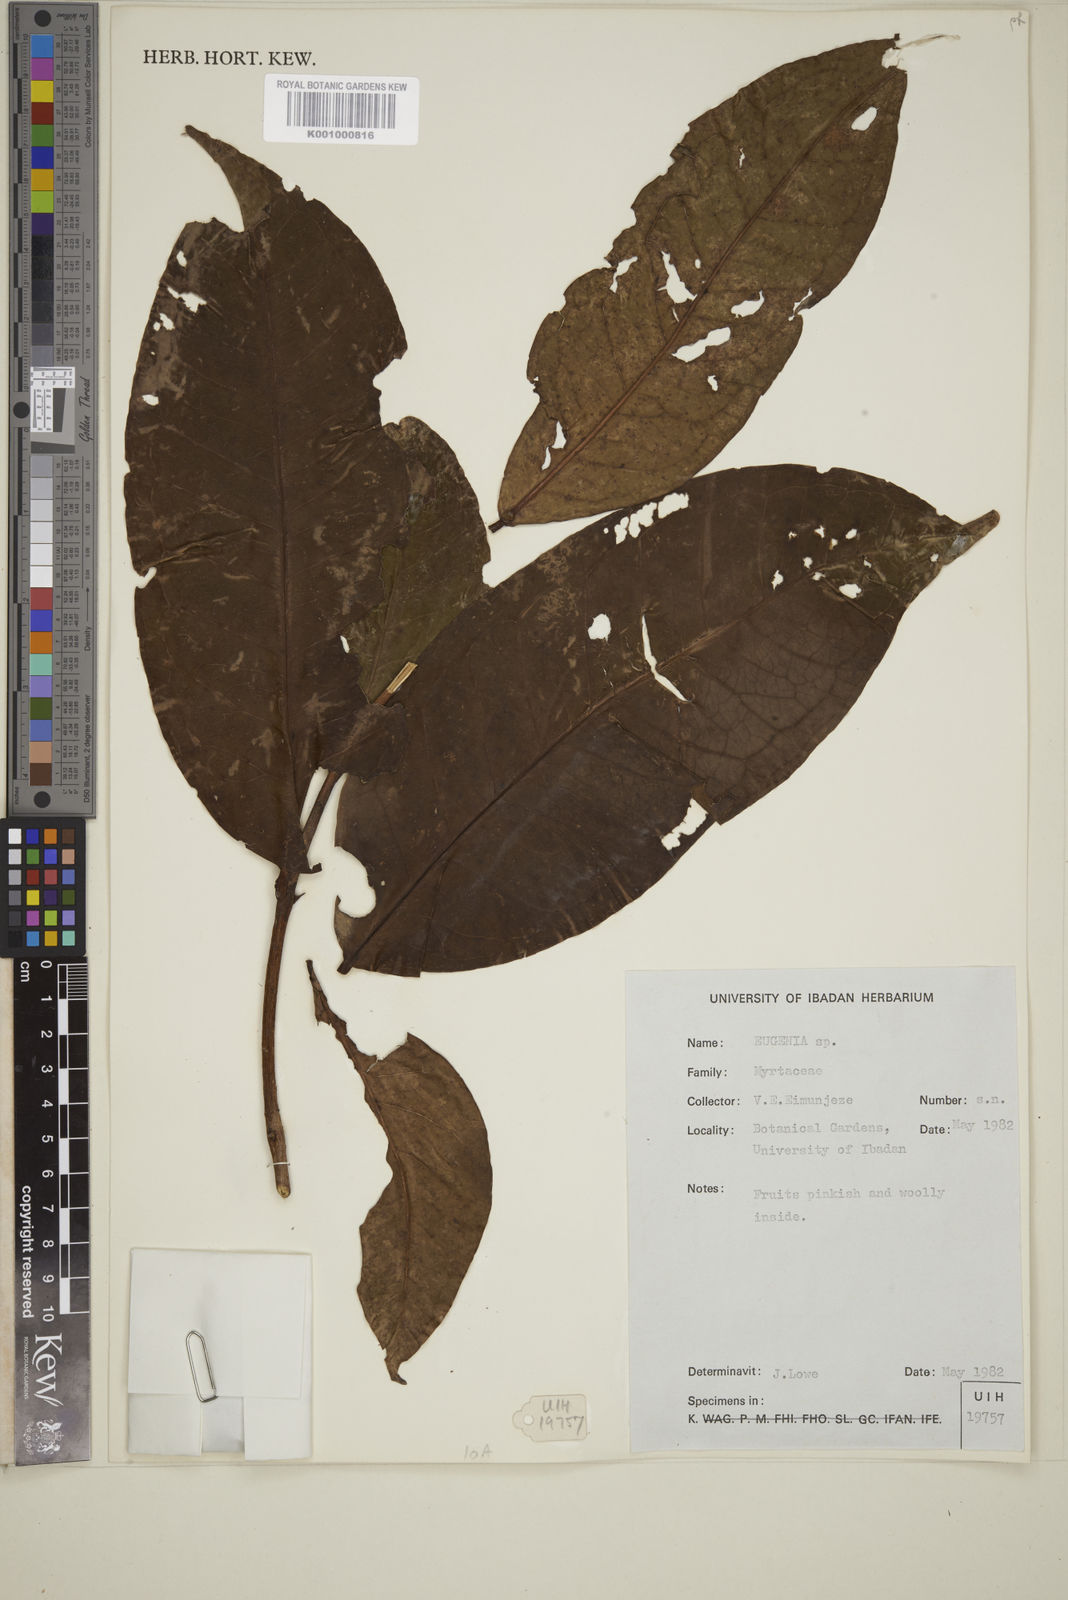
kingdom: Plantae
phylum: Tracheophyta
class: Magnoliopsida
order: Myrtales
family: Myrtaceae
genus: Eugenia
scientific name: Eugenia
